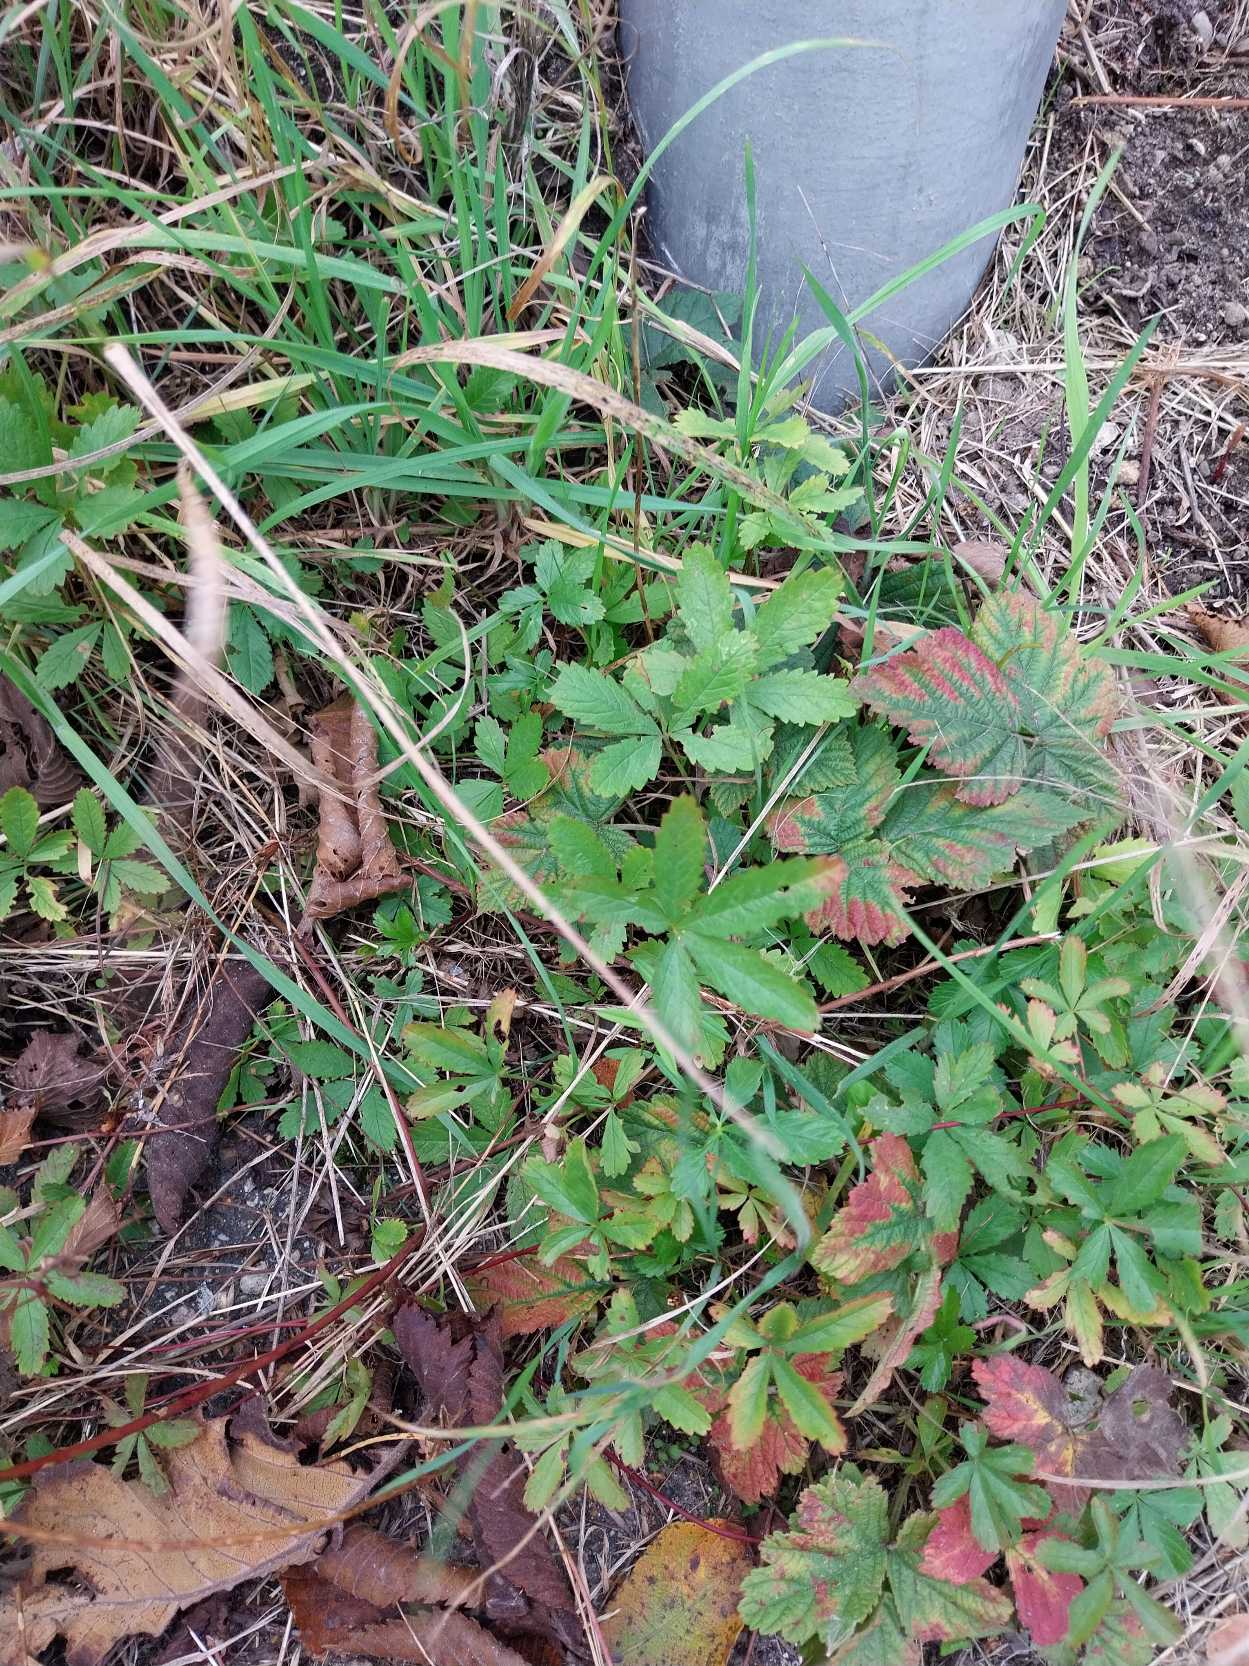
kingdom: Plantae
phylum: Tracheophyta
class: Magnoliopsida
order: Rosales
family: Rosaceae
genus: Potentilla
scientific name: Potentilla reptans
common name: Krybende potentil
